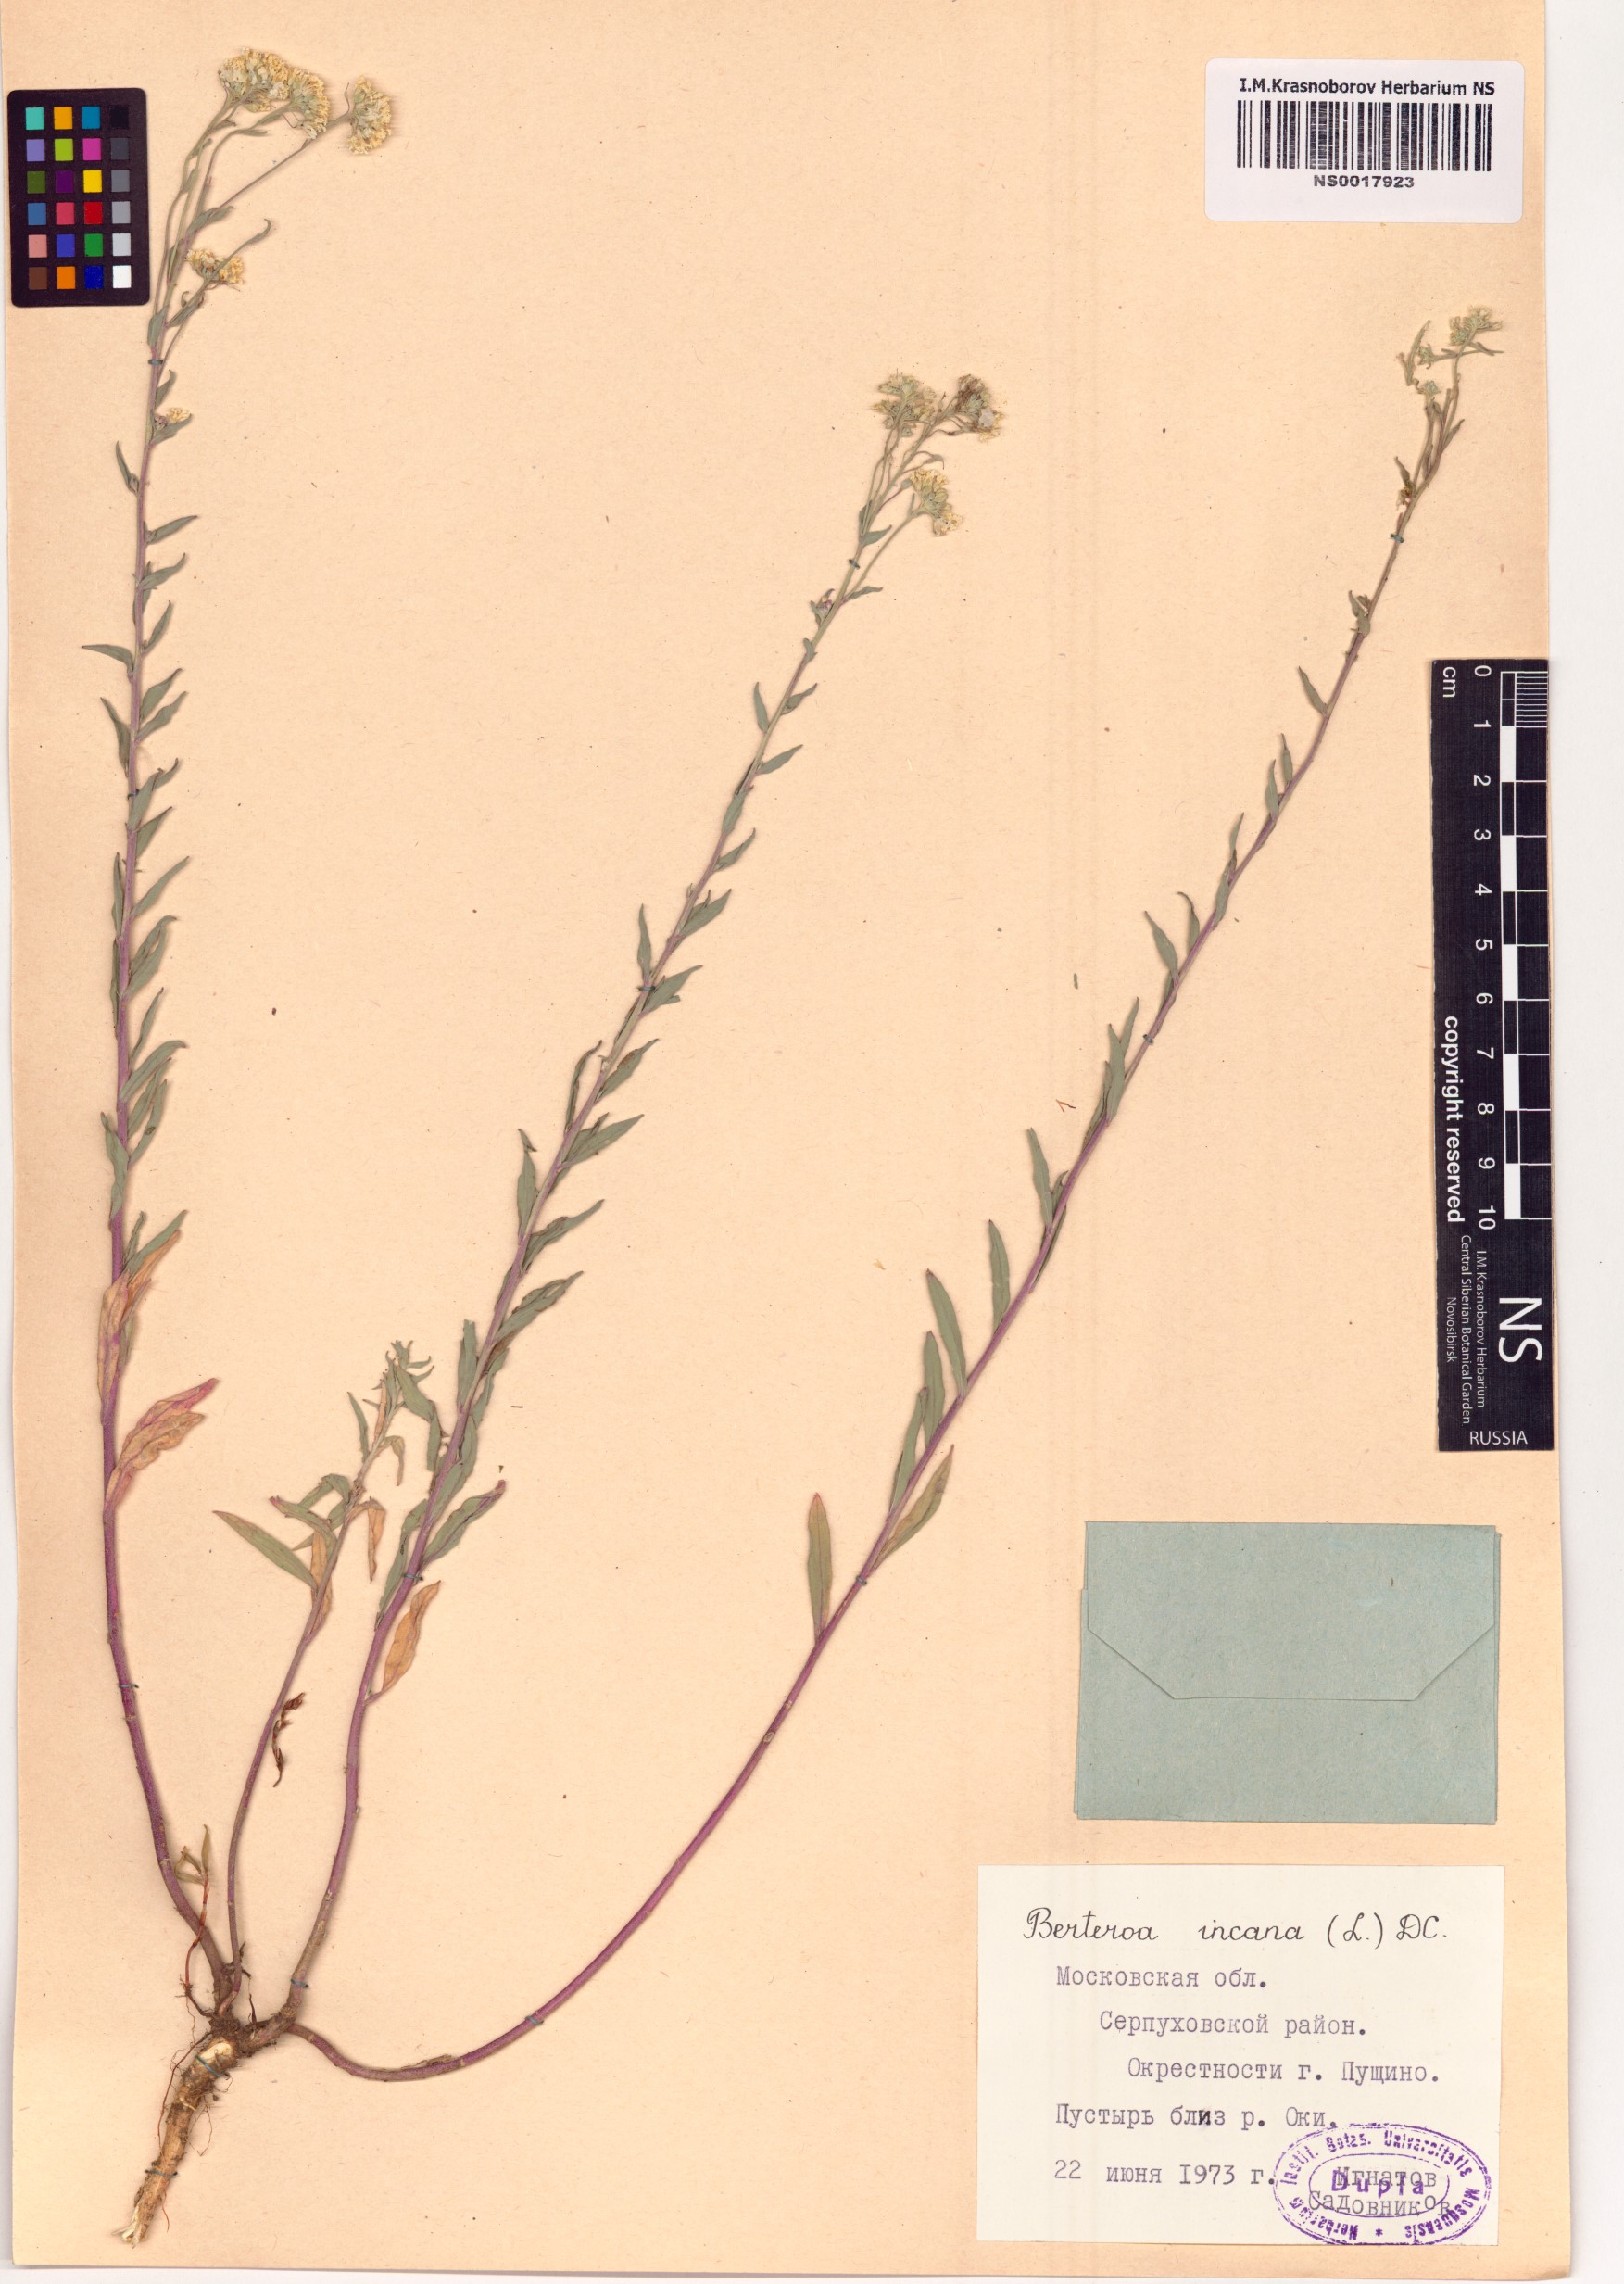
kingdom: Plantae
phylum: Tracheophyta
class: Magnoliopsida
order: Brassicales
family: Brassicaceae
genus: Berteroa
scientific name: Berteroa incana
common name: Hoary alison
